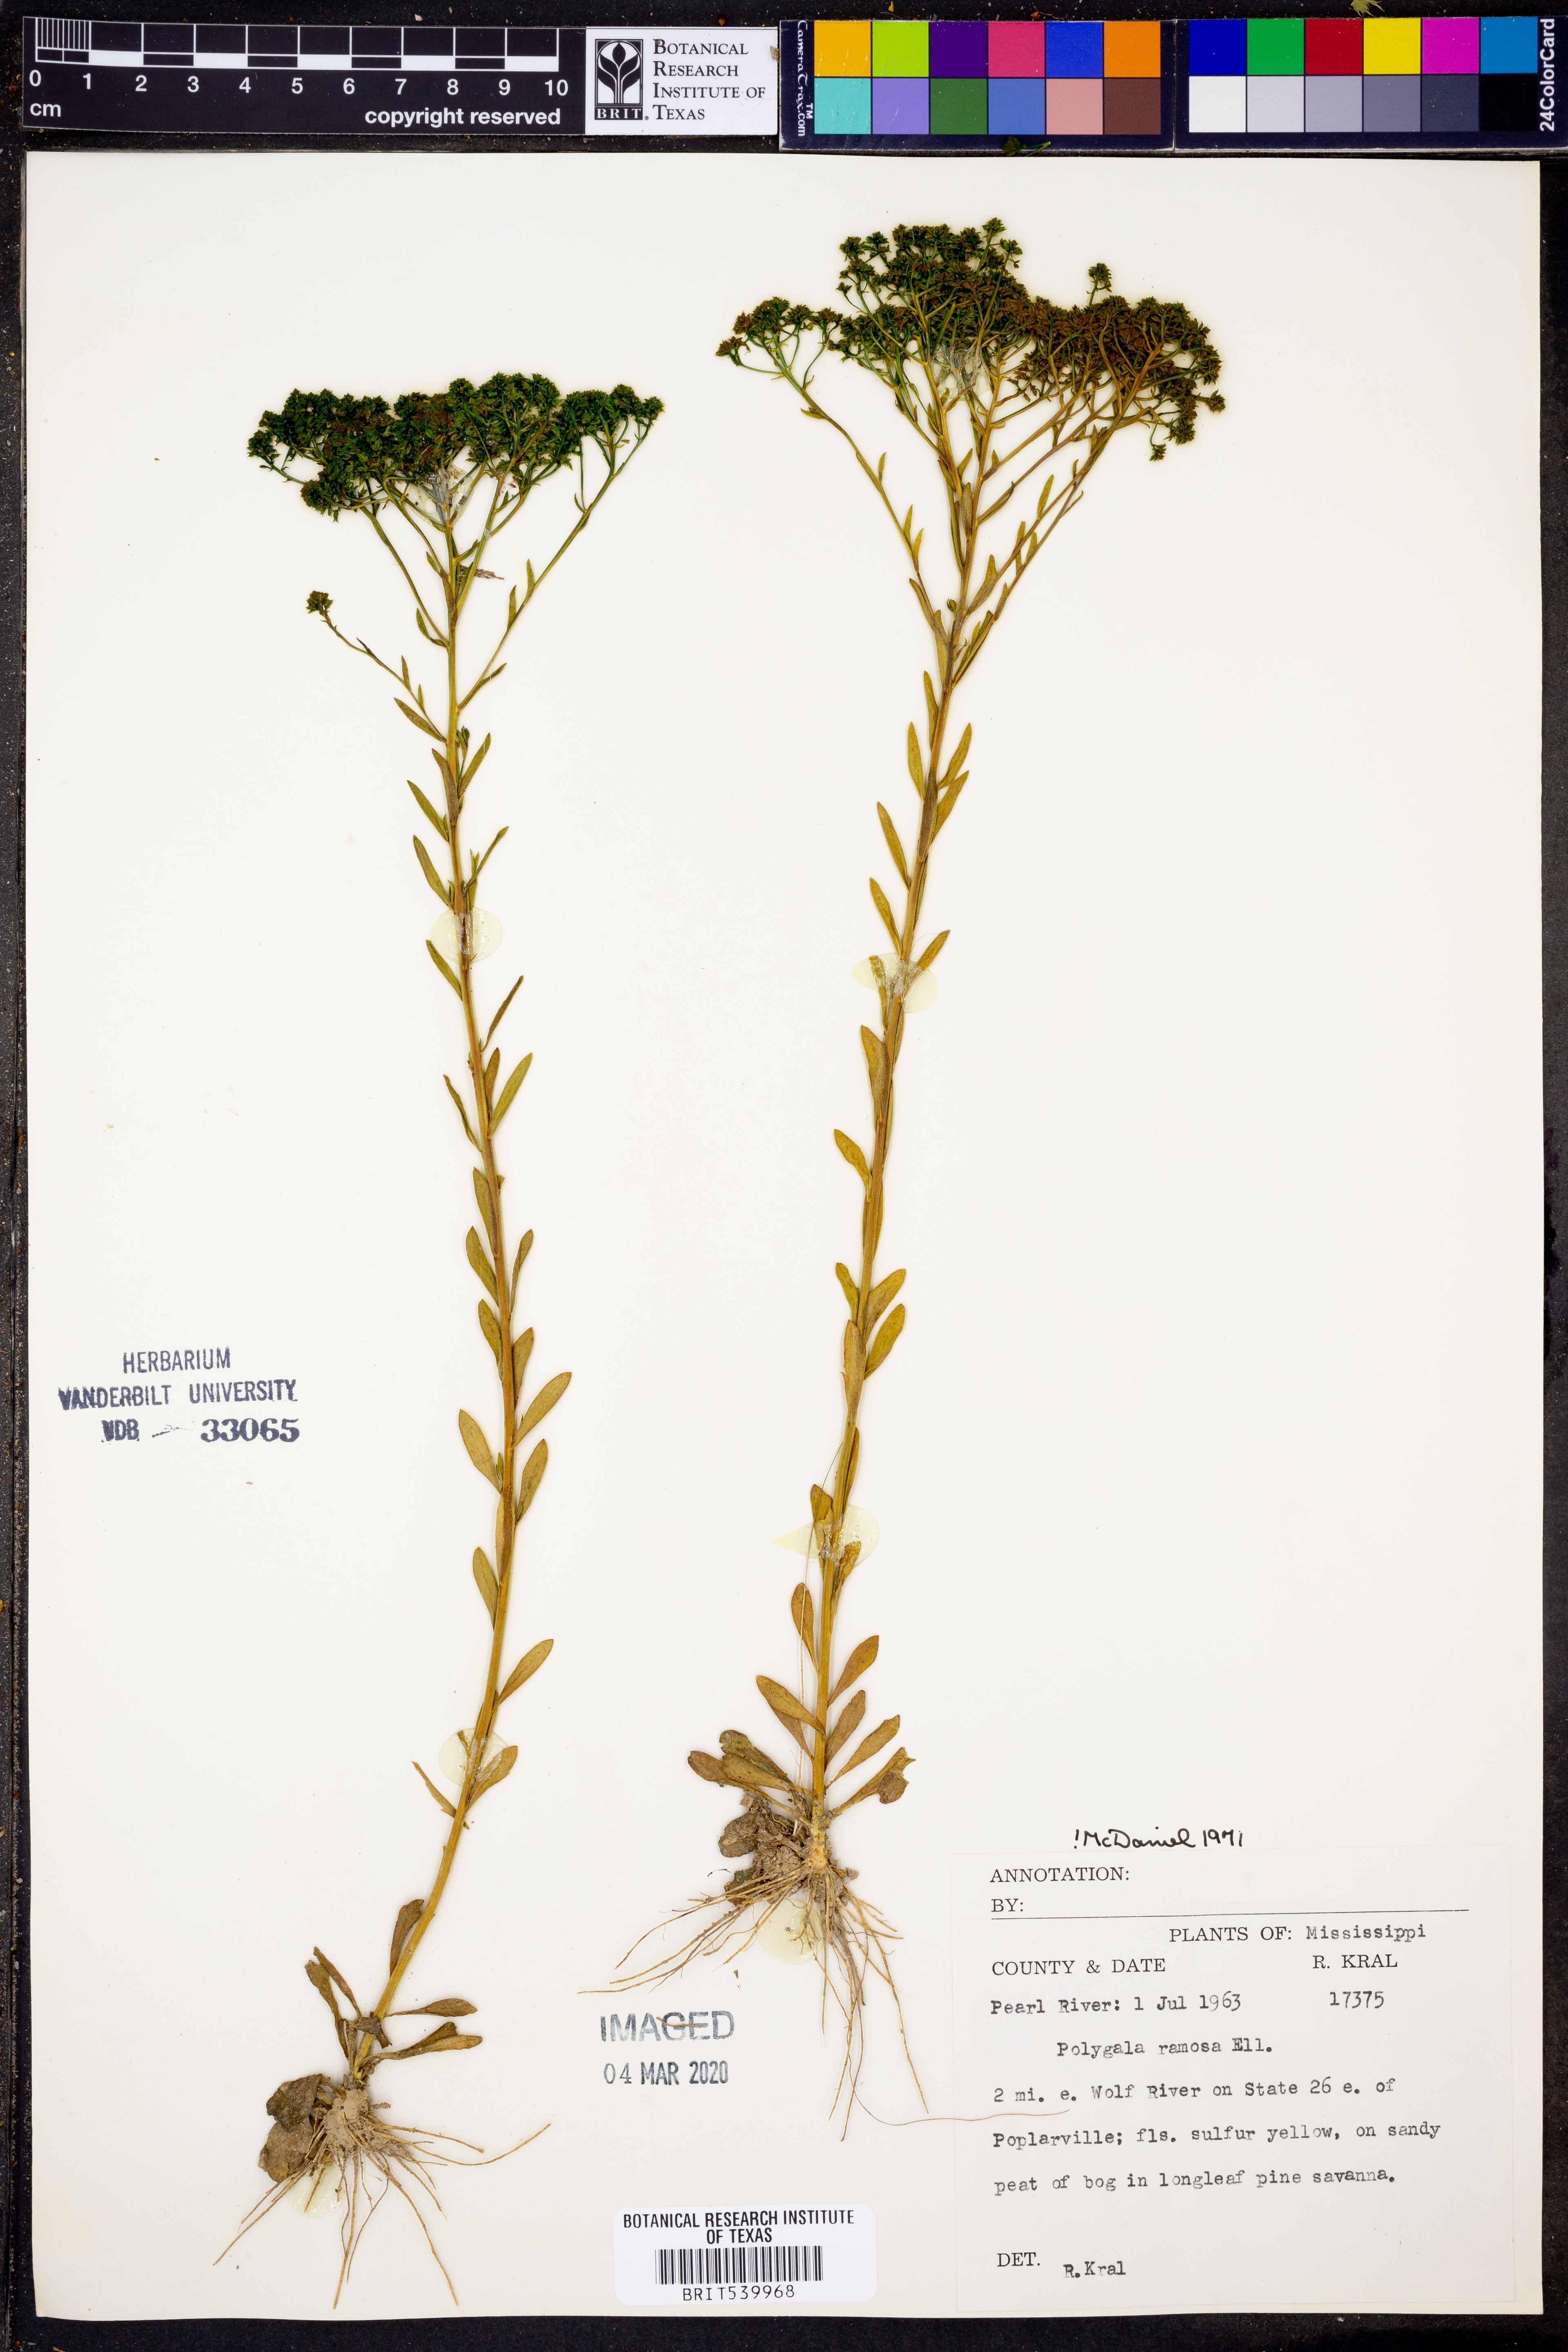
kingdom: Plantae
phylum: Tracheophyta
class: Magnoliopsida
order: Fabales
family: Polygalaceae
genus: Polygala
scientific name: Polygala ramosa
